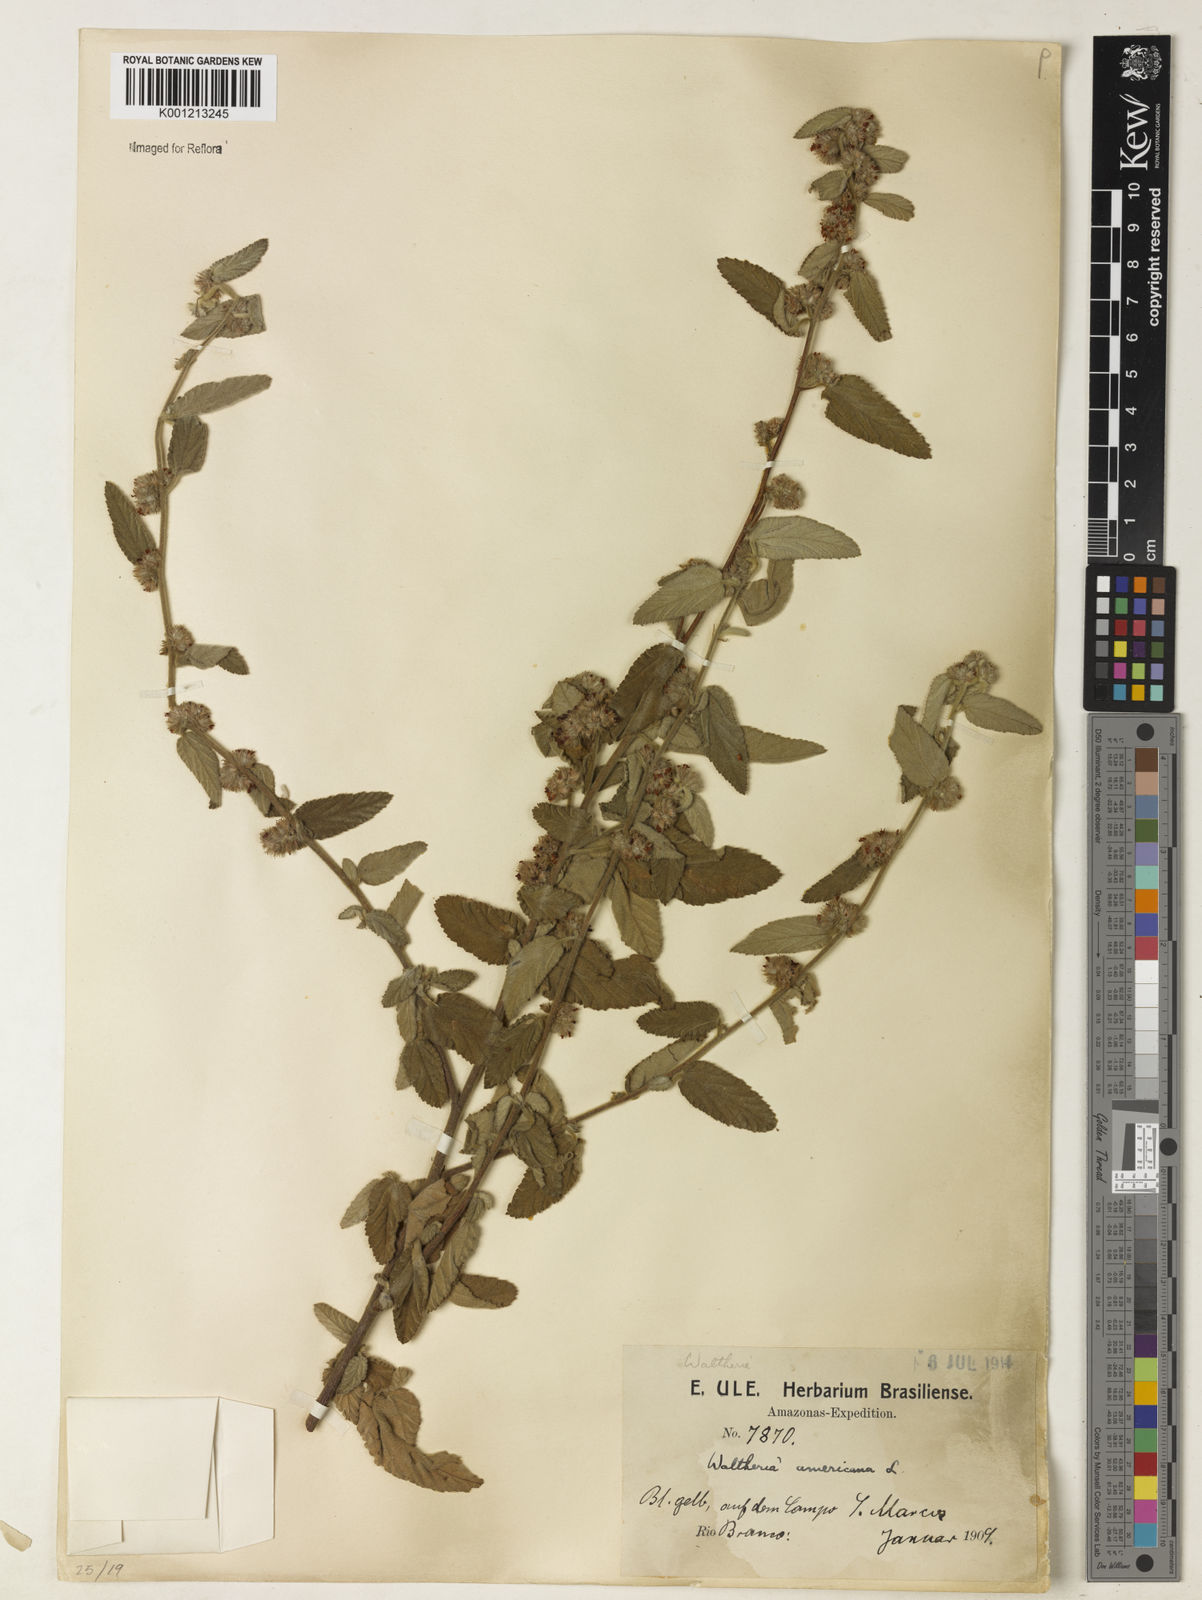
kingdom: Plantae
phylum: Tracheophyta
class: Magnoliopsida
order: Malvales
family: Malvaceae
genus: Waltheria
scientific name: Waltheria indica
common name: Leather-coat
